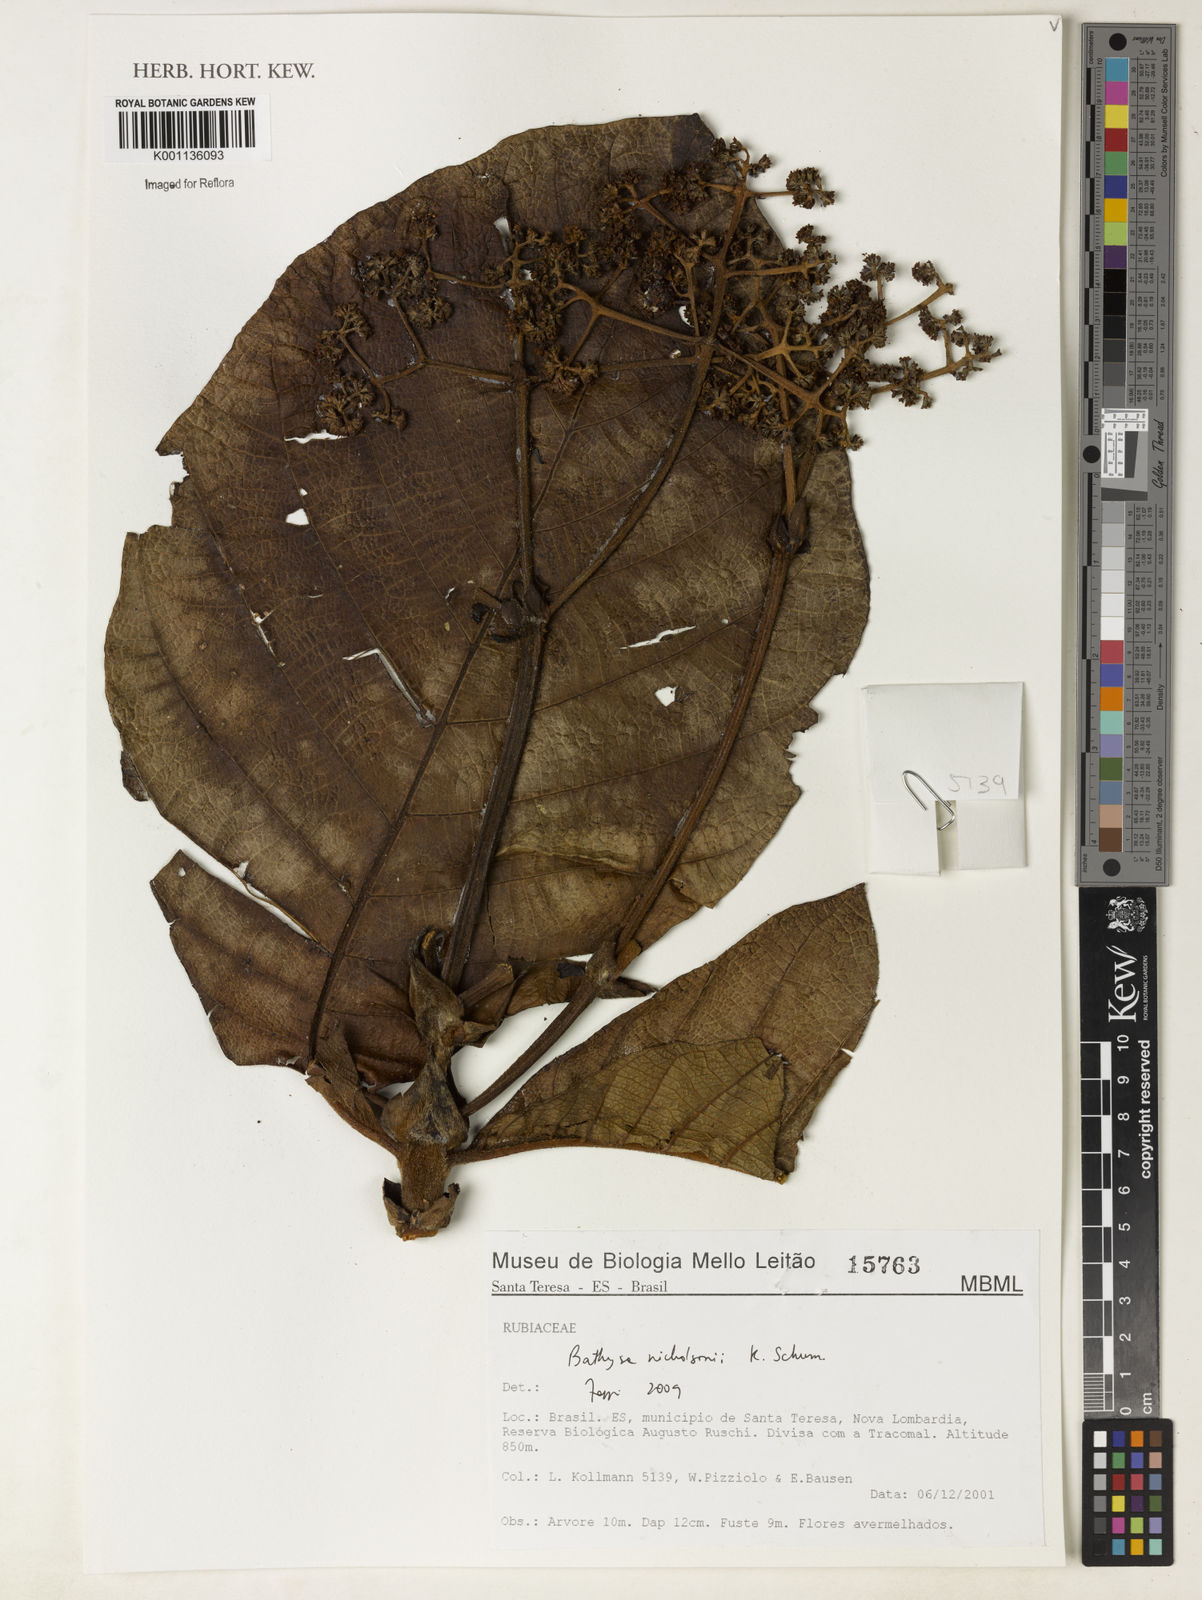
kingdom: Plantae
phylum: Tracheophyta
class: Magnoliopsida
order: Gentianales
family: Rubiaceae
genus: Bathysa
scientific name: Bathysa nicholsonii
